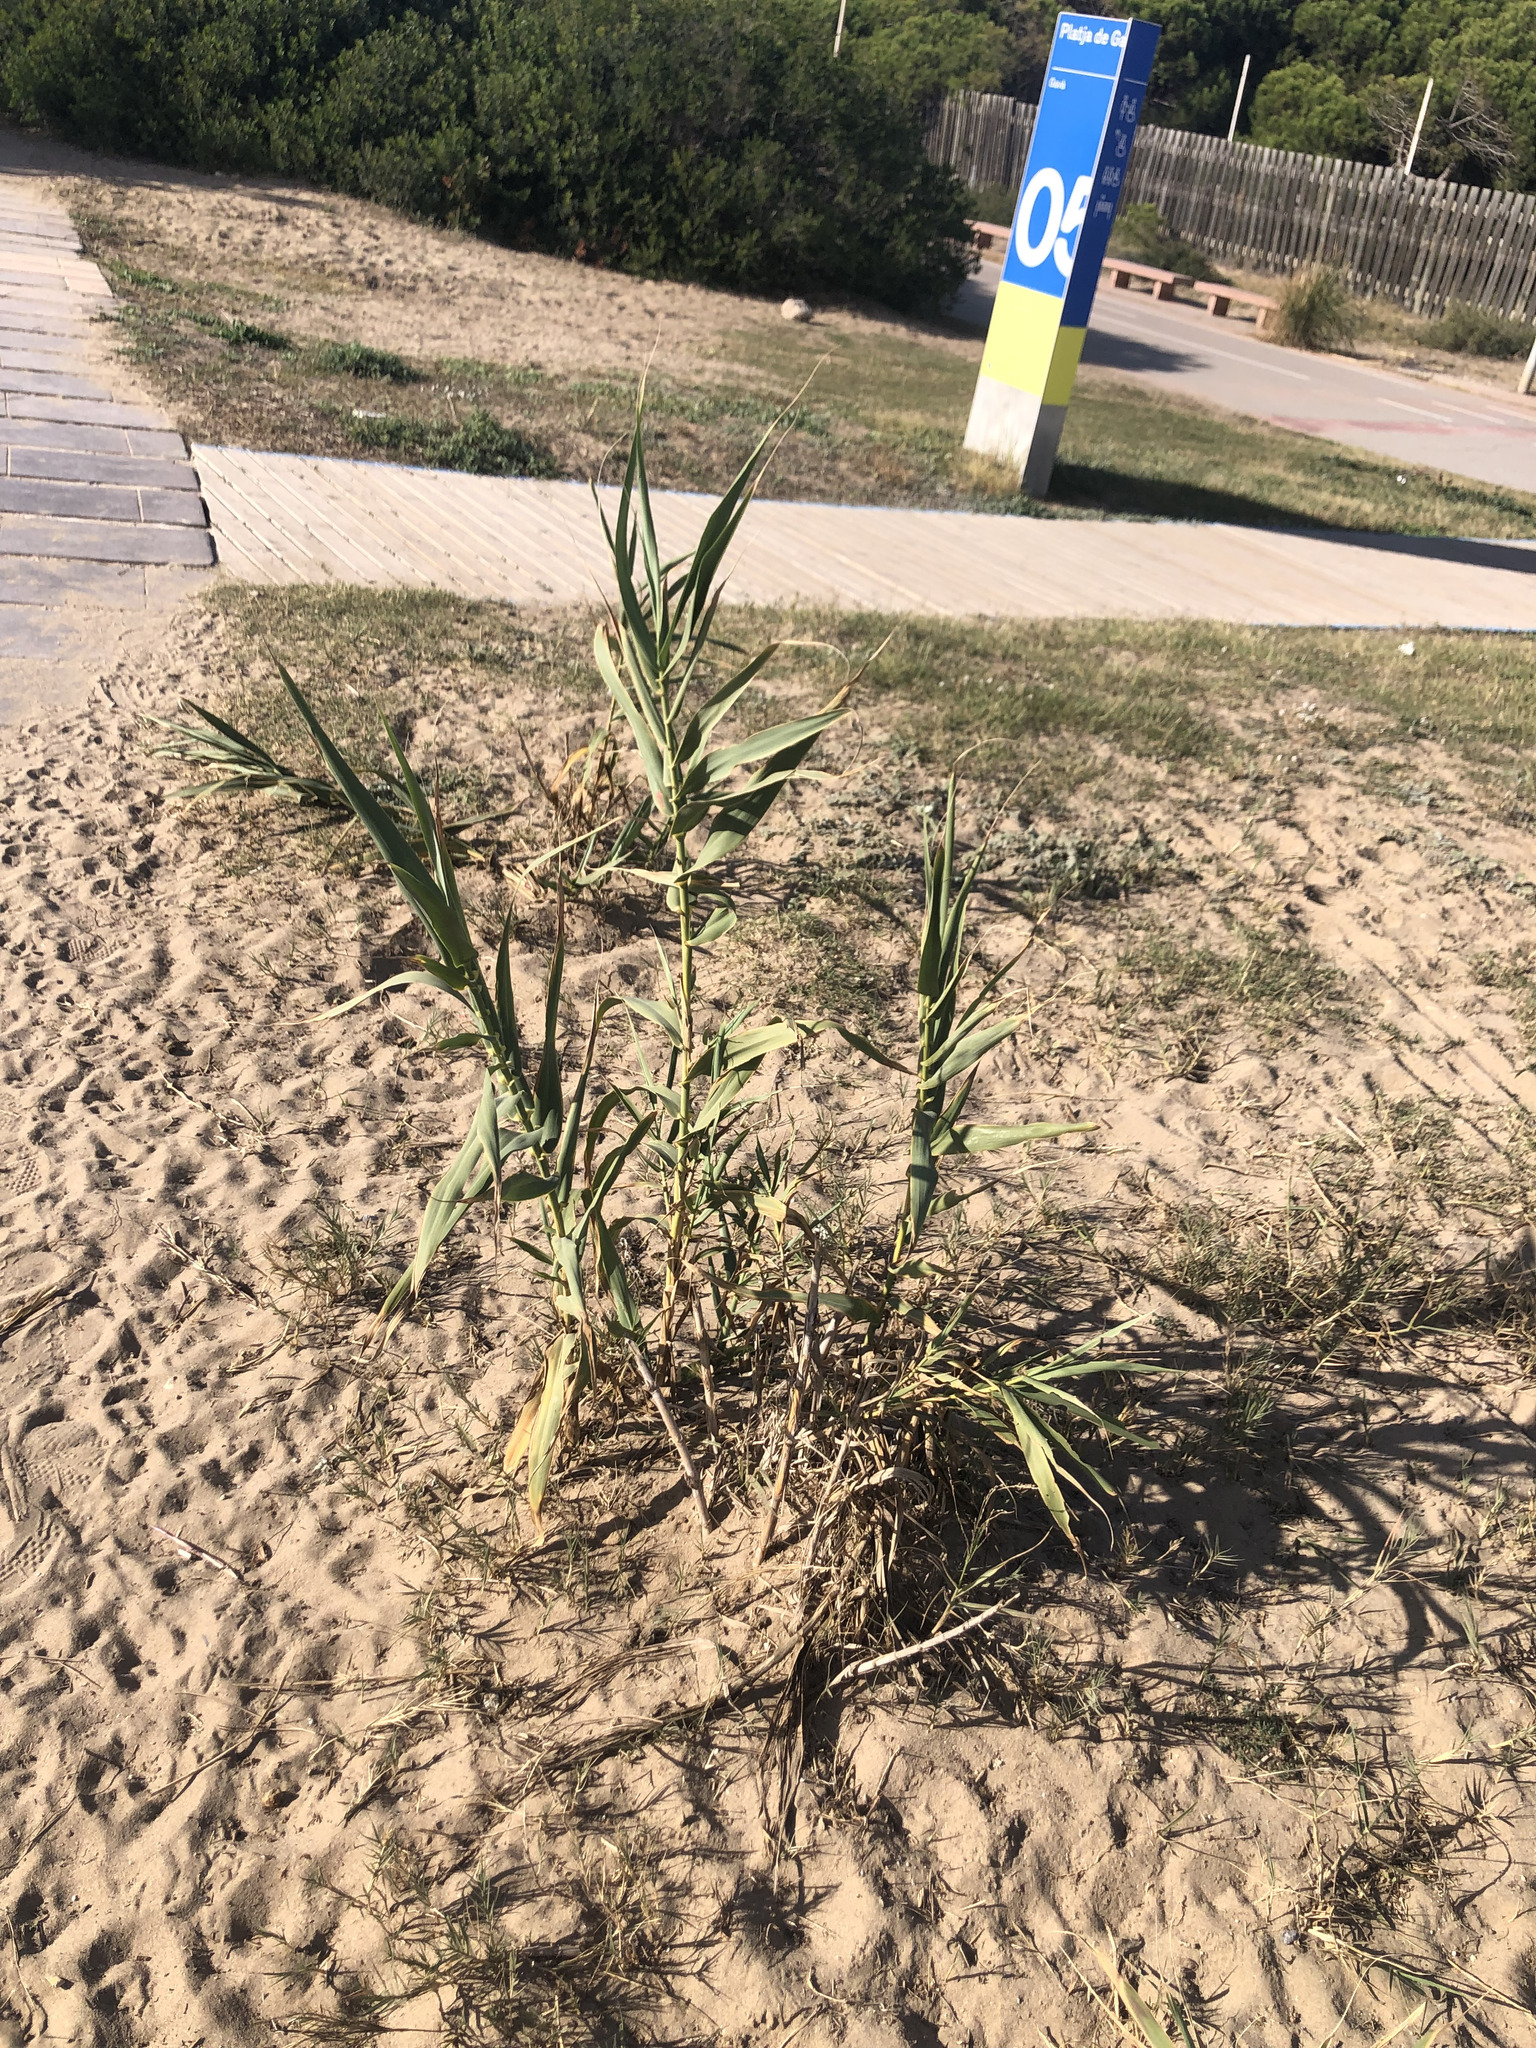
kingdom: Plantae
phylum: Tracheophyta
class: Liliopsida
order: Poales
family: Poaceae
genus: Arundo
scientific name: Arundo donax
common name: Giant reed
